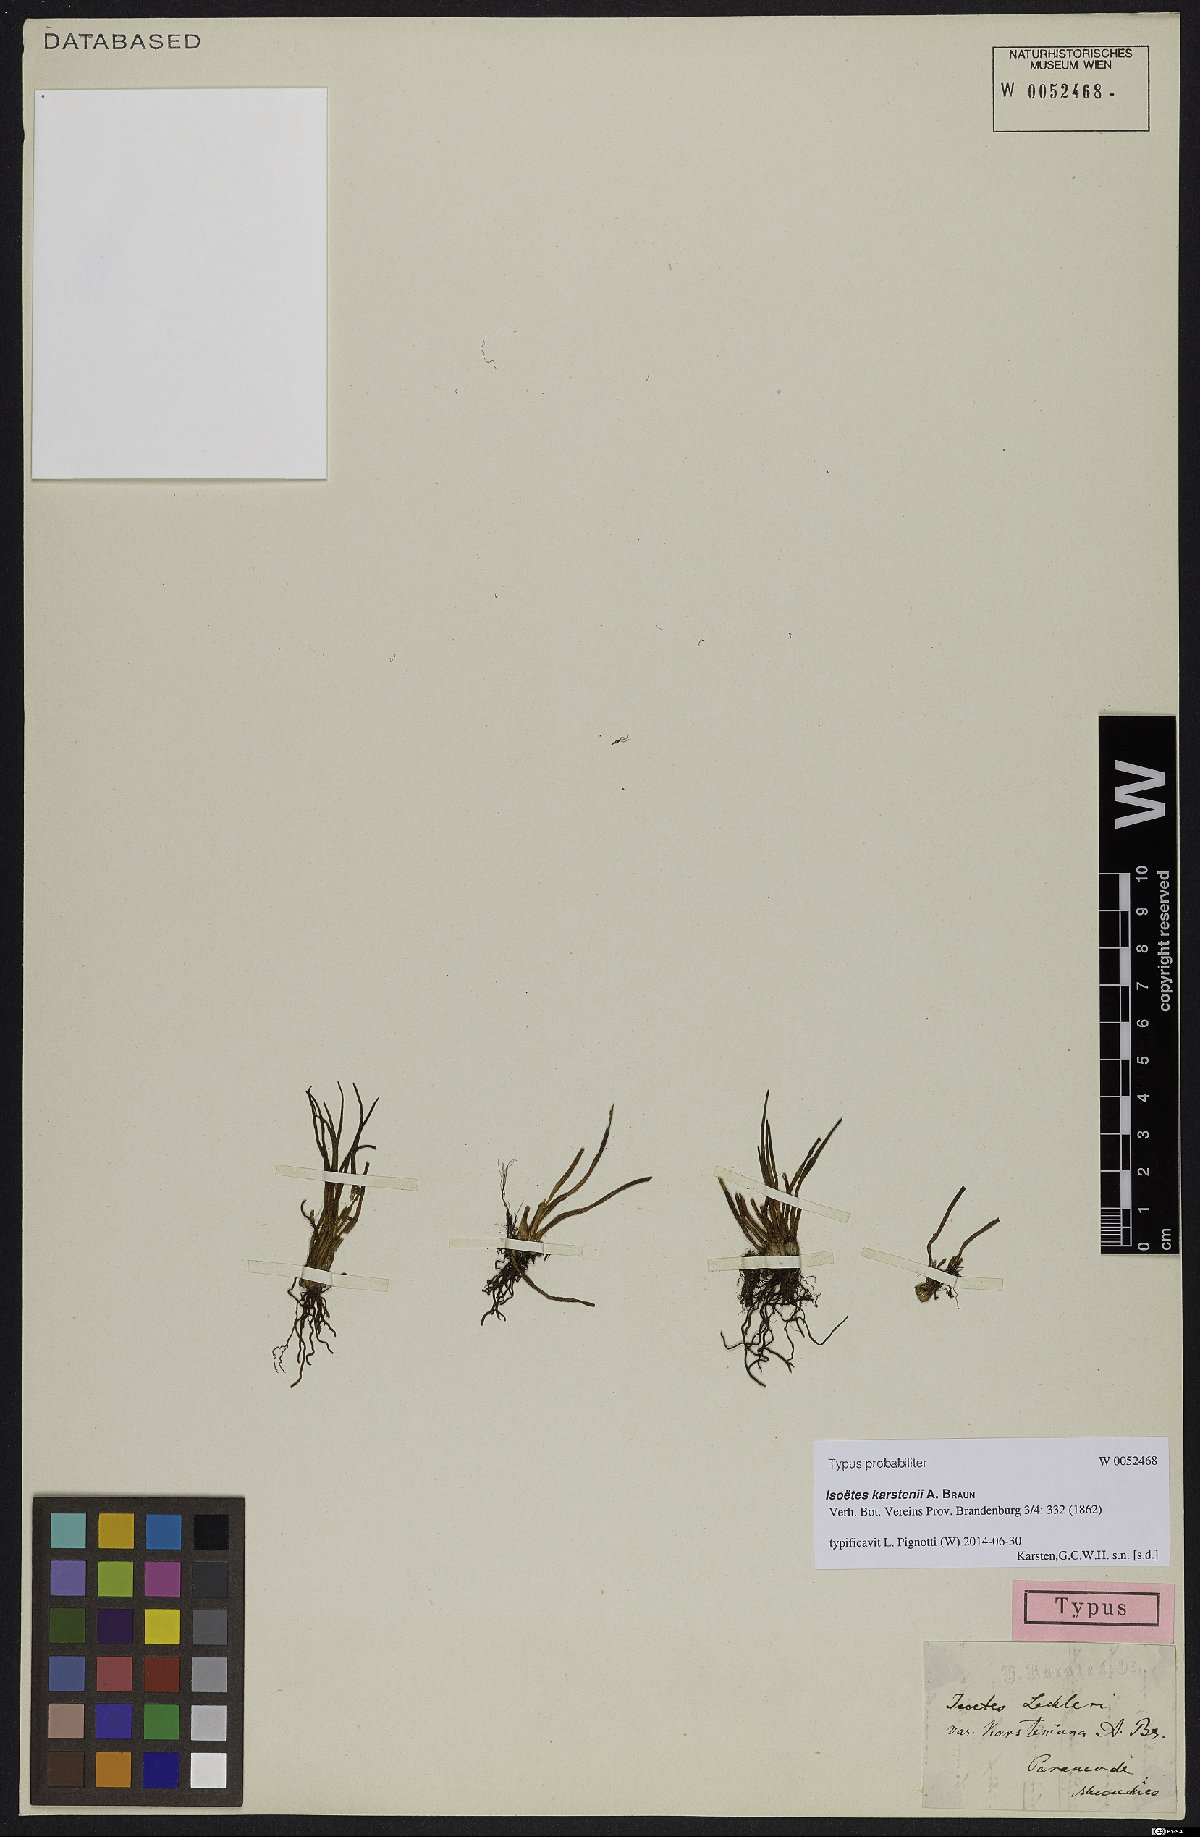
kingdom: Plantae
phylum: Tracheophyta
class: Lycopodiopsida
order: Isoetales
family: Isoetaceae
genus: Isoetes
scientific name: Isoetes karstenii
